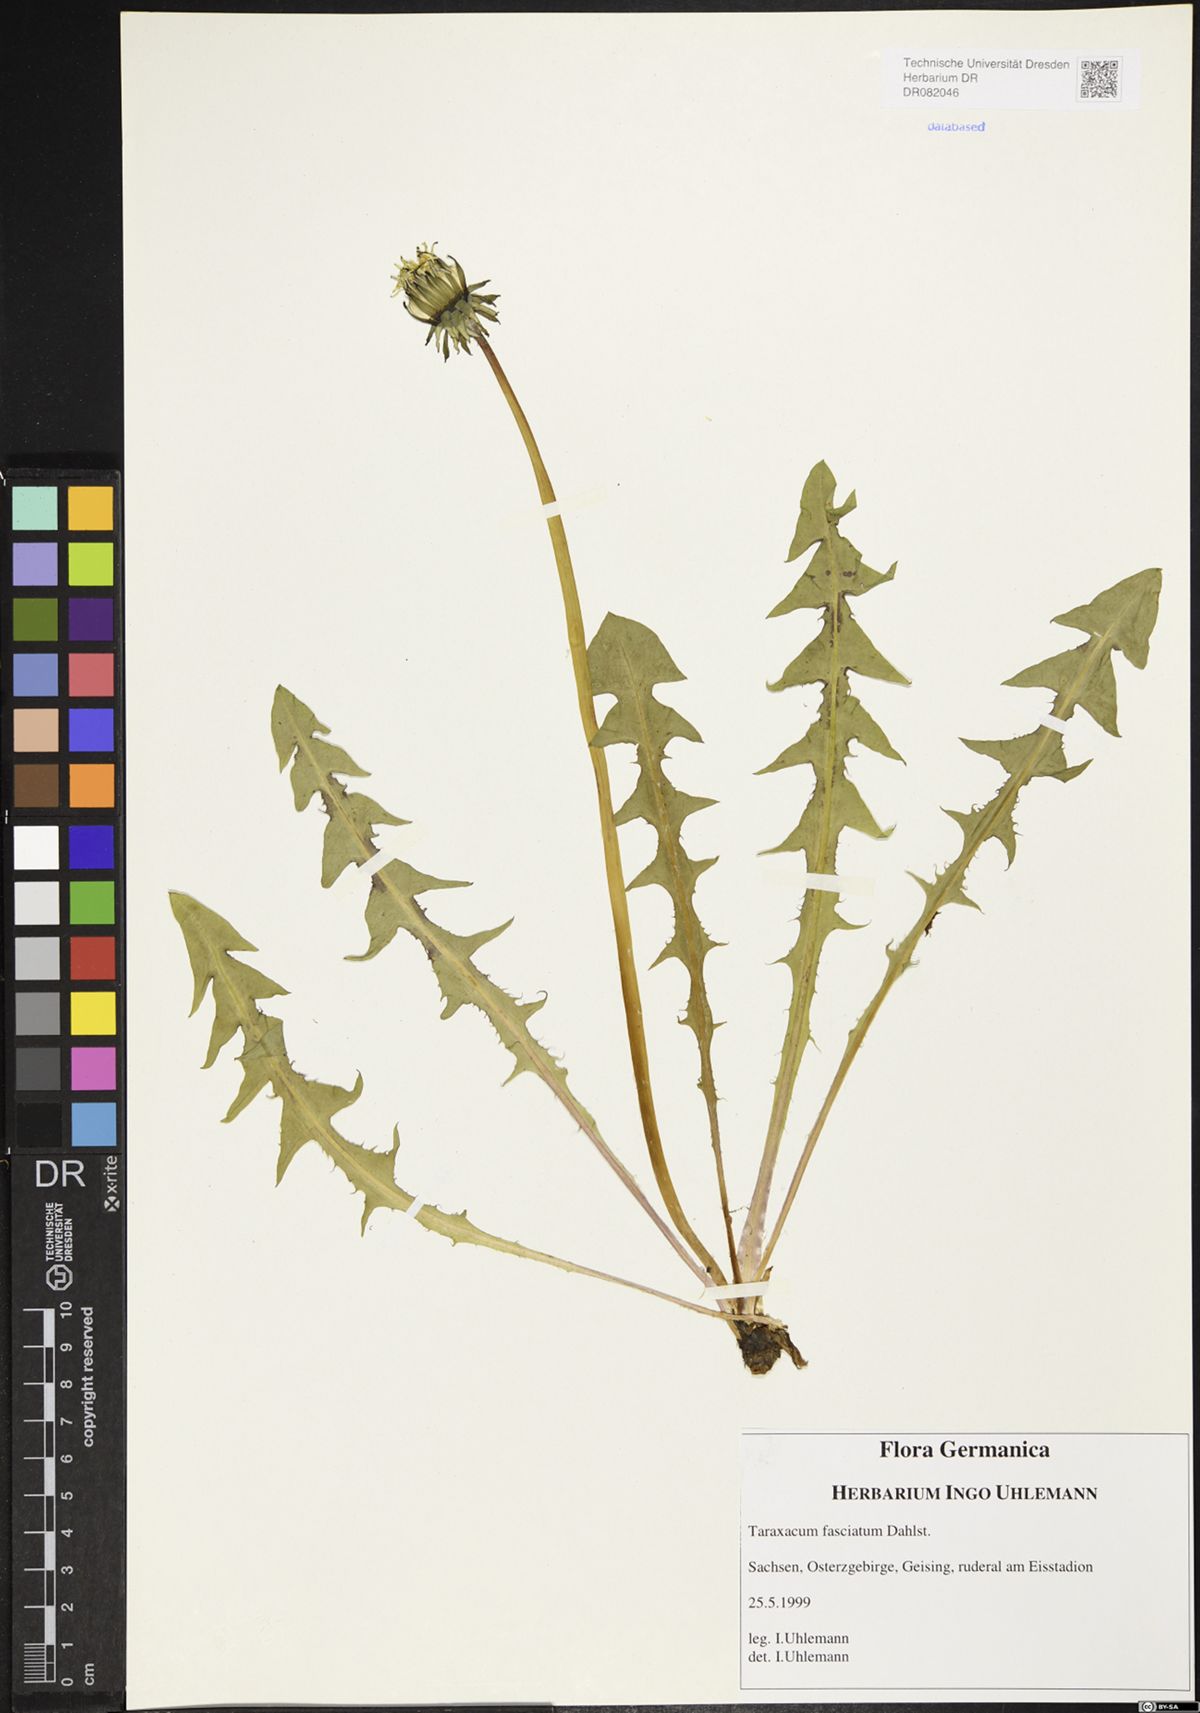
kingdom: Plantae
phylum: Tracheophyta
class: Magnoliopsida
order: Asterales
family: Asteraceae
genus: Taraxacum
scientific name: Taraxacum fasciatum
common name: Dense-bracted dandelion
